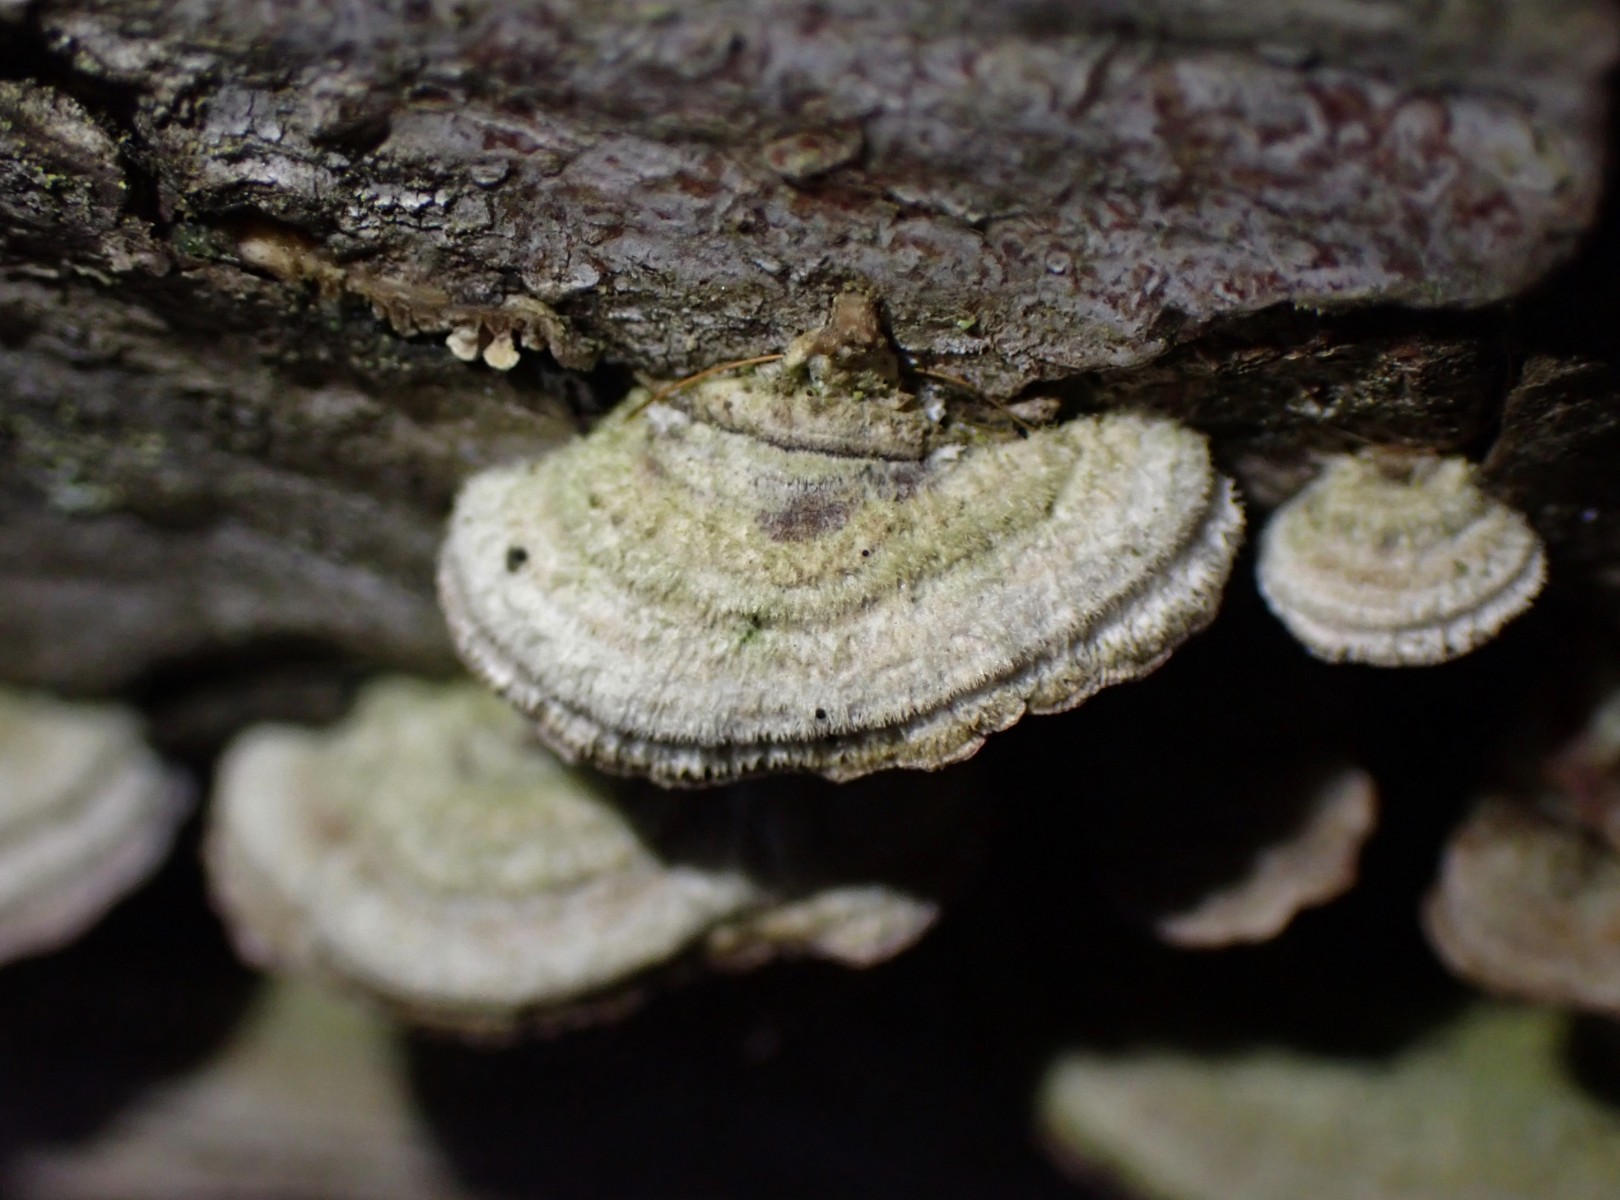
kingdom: Fungi
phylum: Basidiomycota
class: Agaricomycetes
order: Hymenochaetales
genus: Trichaptum
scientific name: Trichaptum abietinum
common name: almindelig violporesvamp
